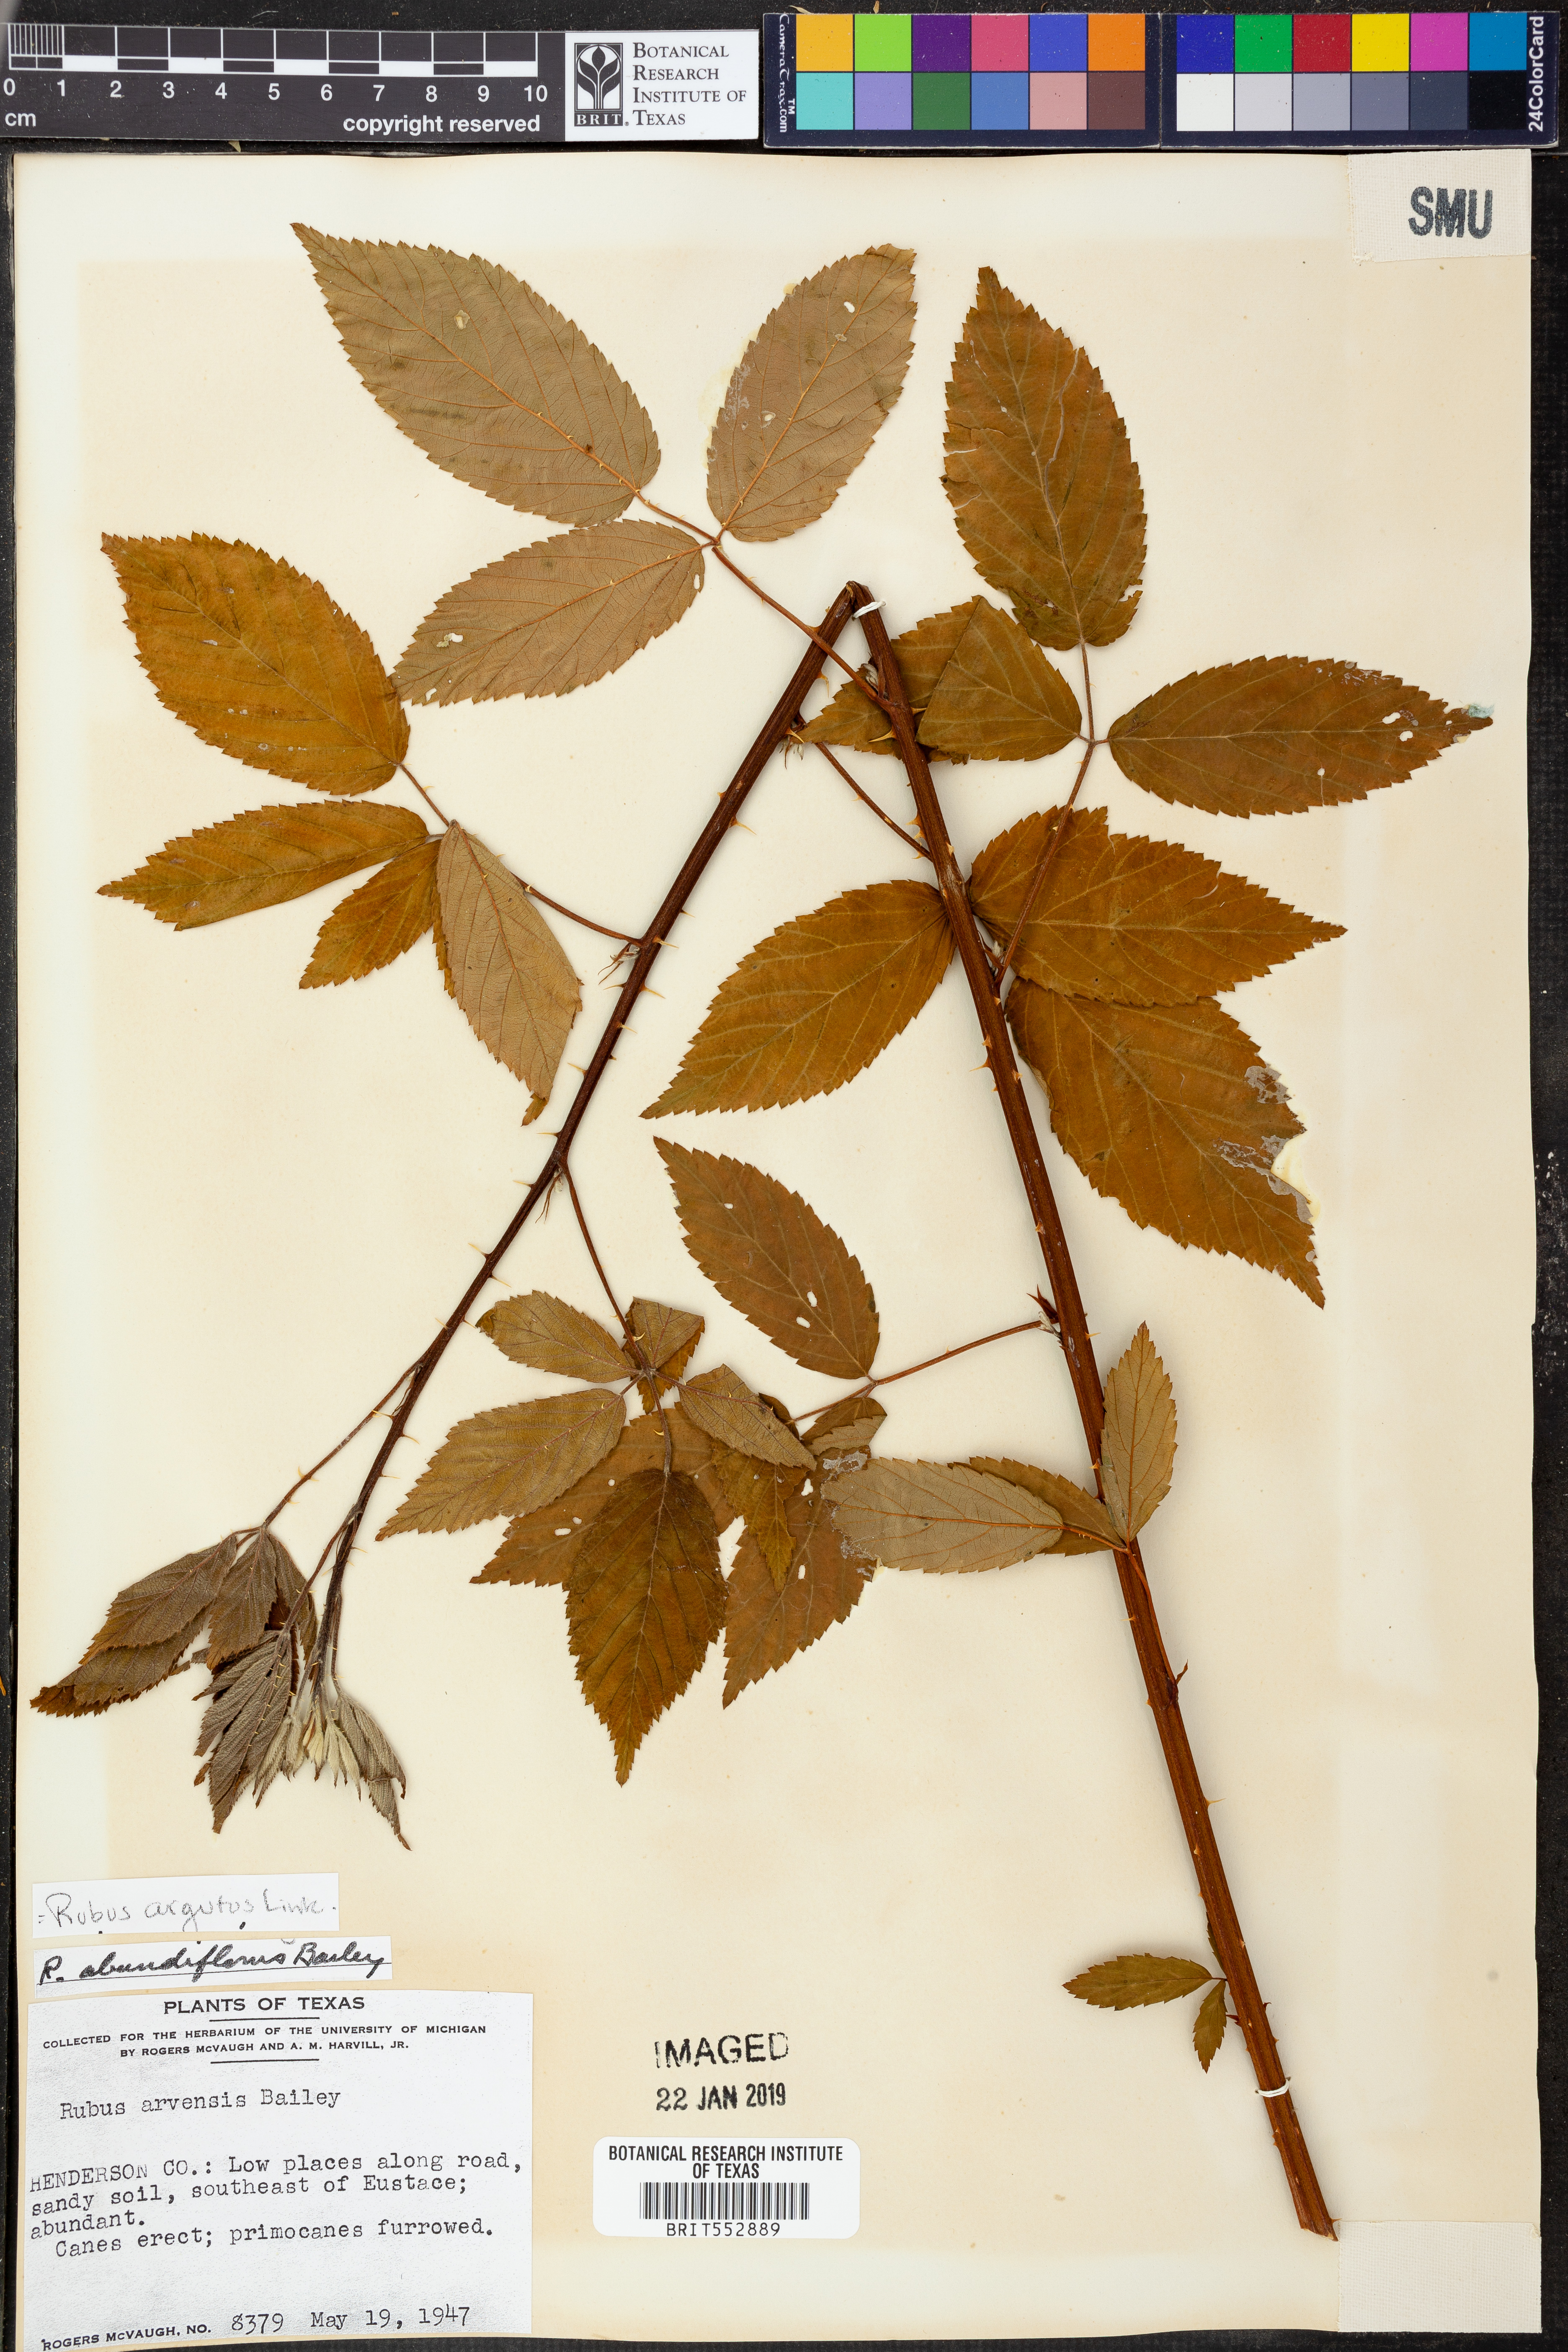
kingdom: Plantae
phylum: Tracheophyta
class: Magnoliopsida
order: Rosales
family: Rosaceae
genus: Rubus
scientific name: Rubus argutus
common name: Sawtooth blackberry
